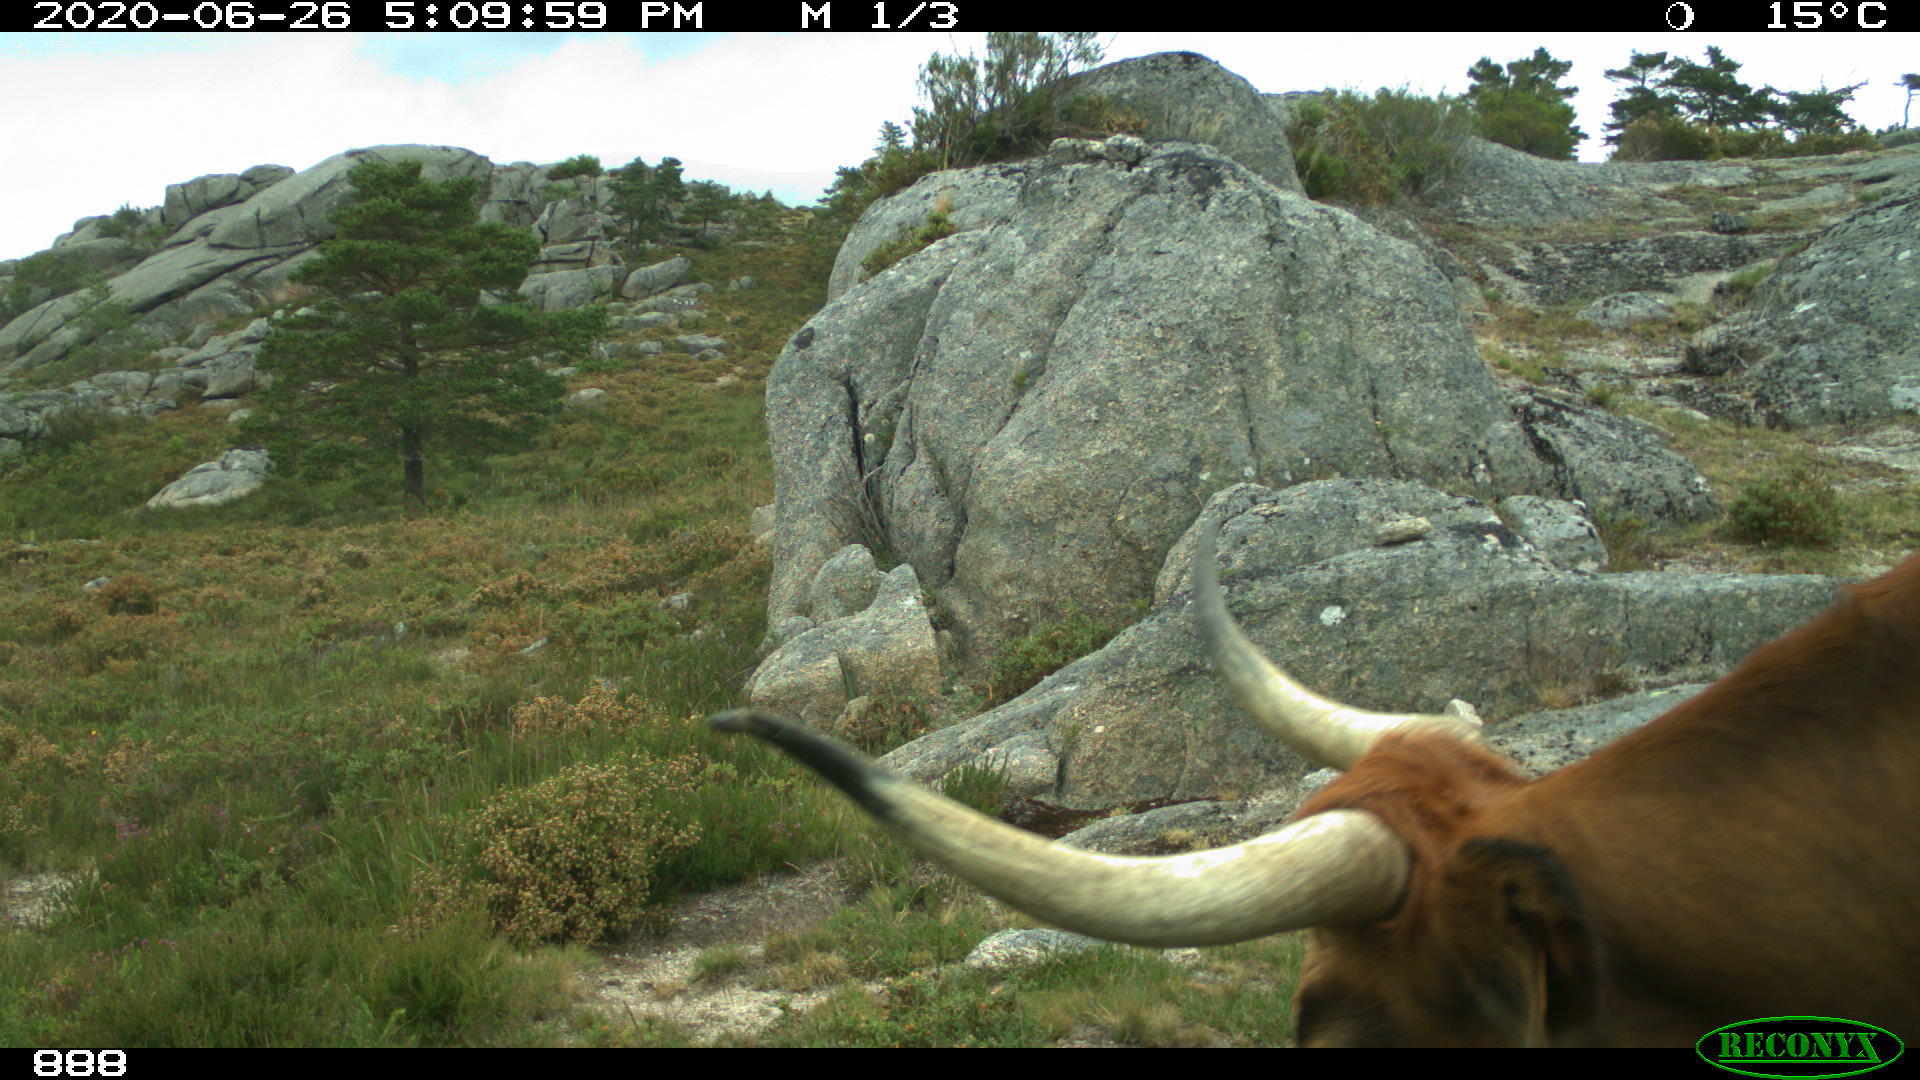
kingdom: Animalia
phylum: Chordata
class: Mammalia
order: Artiodactyla
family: Bovidae
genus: Bos
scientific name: Bos taurus
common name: Domesticated cattle
